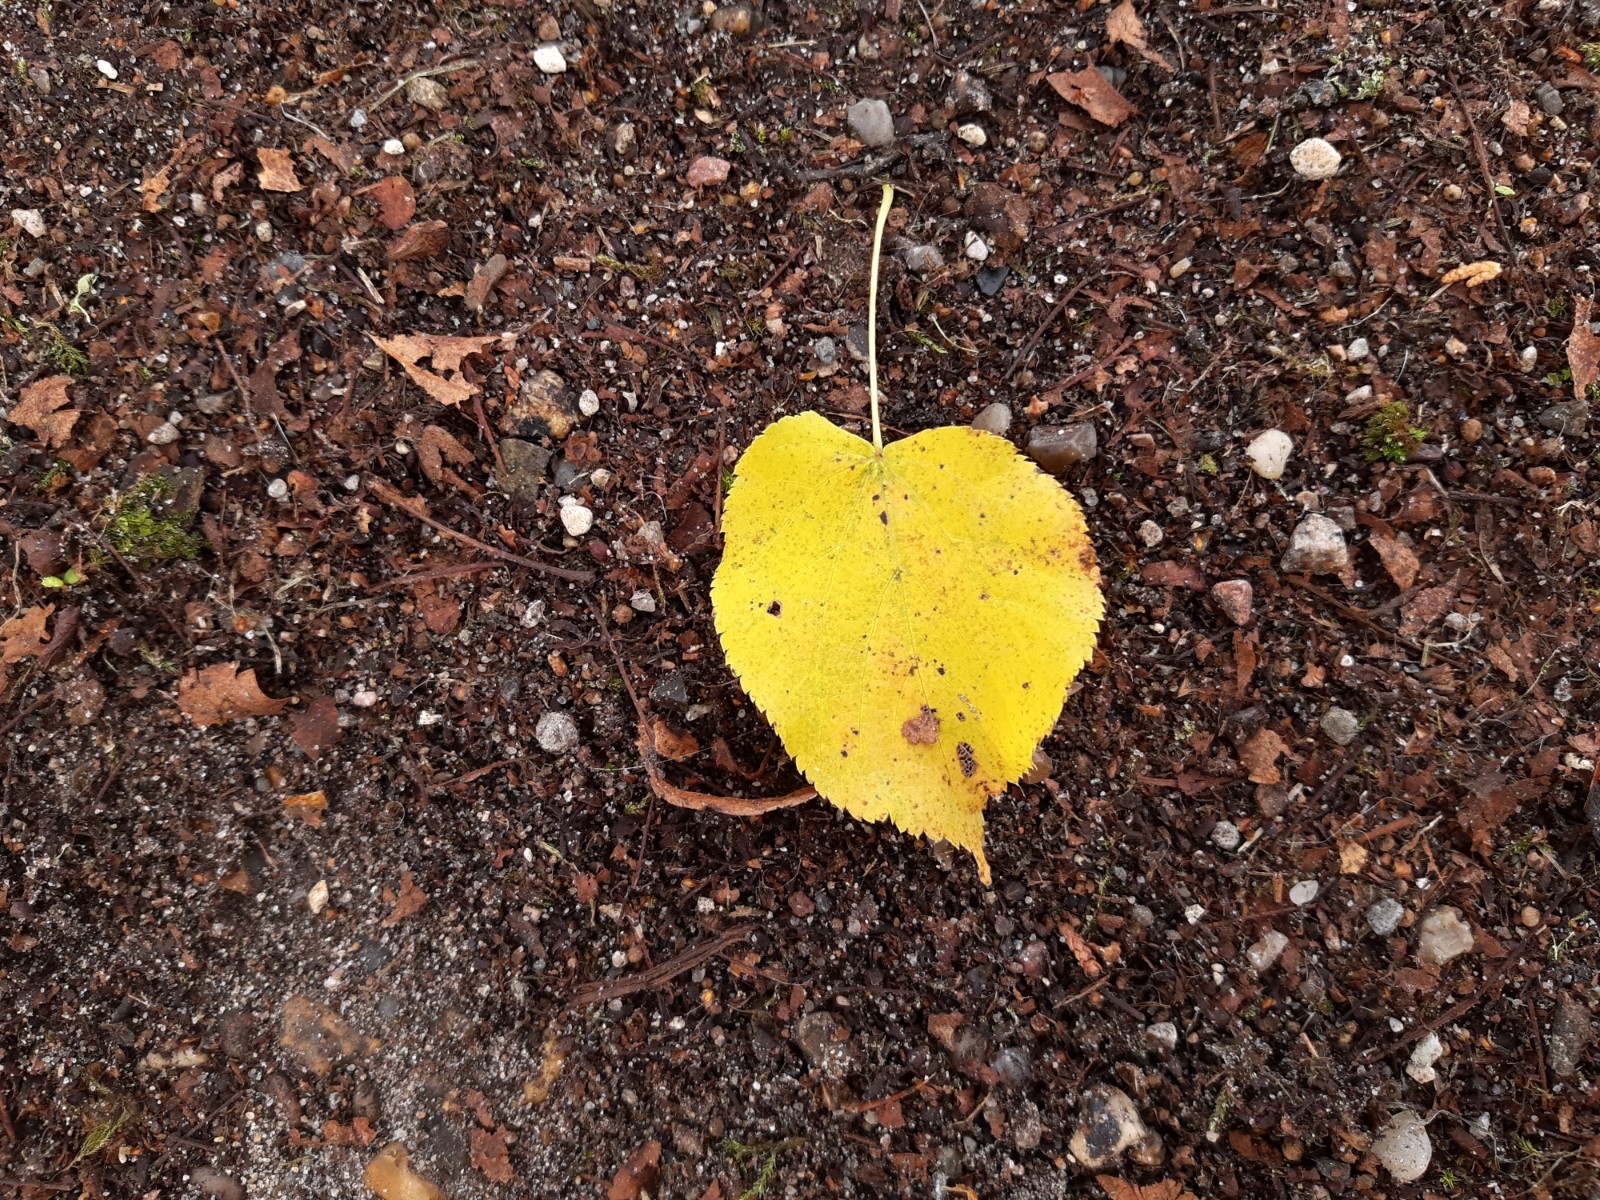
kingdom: Fungi
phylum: Basidiomycota
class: Agaricomycetes
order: Agaricales
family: Strophariaceae
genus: Pholiota
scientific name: Pholiota squarrosa
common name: krumskællet skælhat
